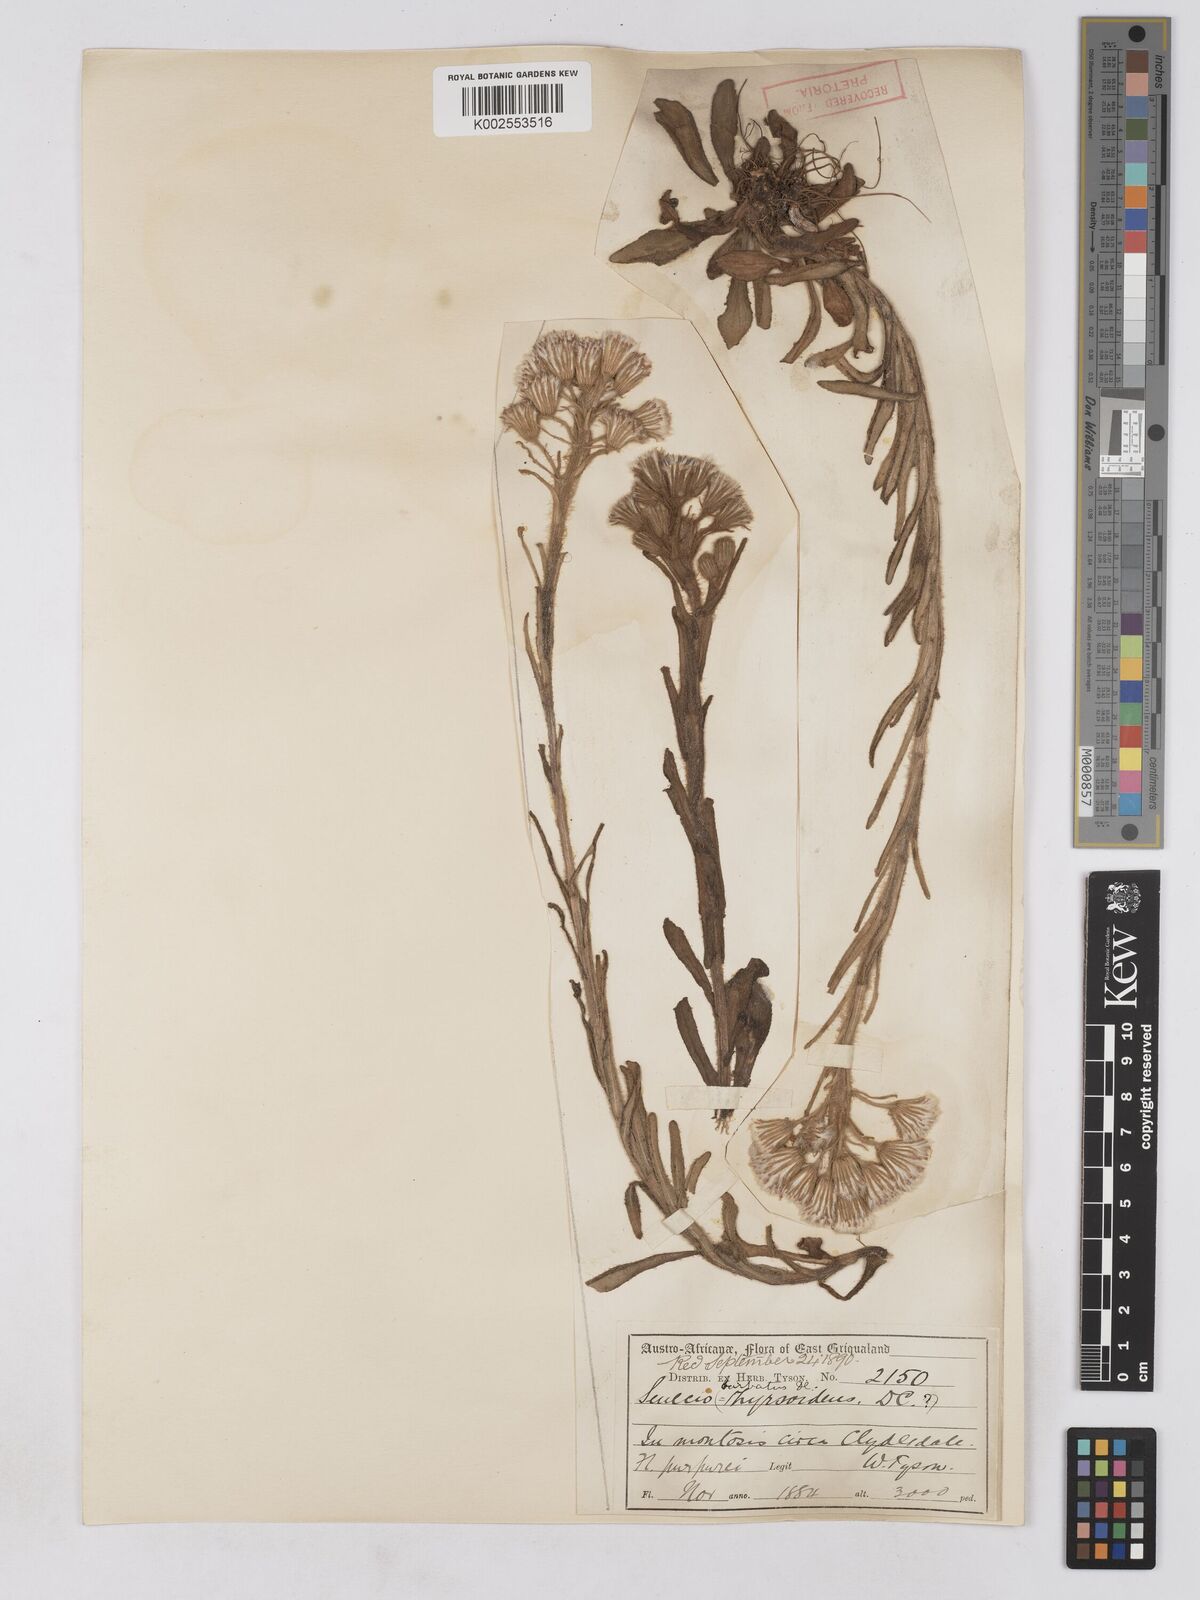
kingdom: Plantae
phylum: Tracheophyta
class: Magnoliopsida
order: Asterales
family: Asteraceae
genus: Senecio
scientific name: Senecio barbatus
